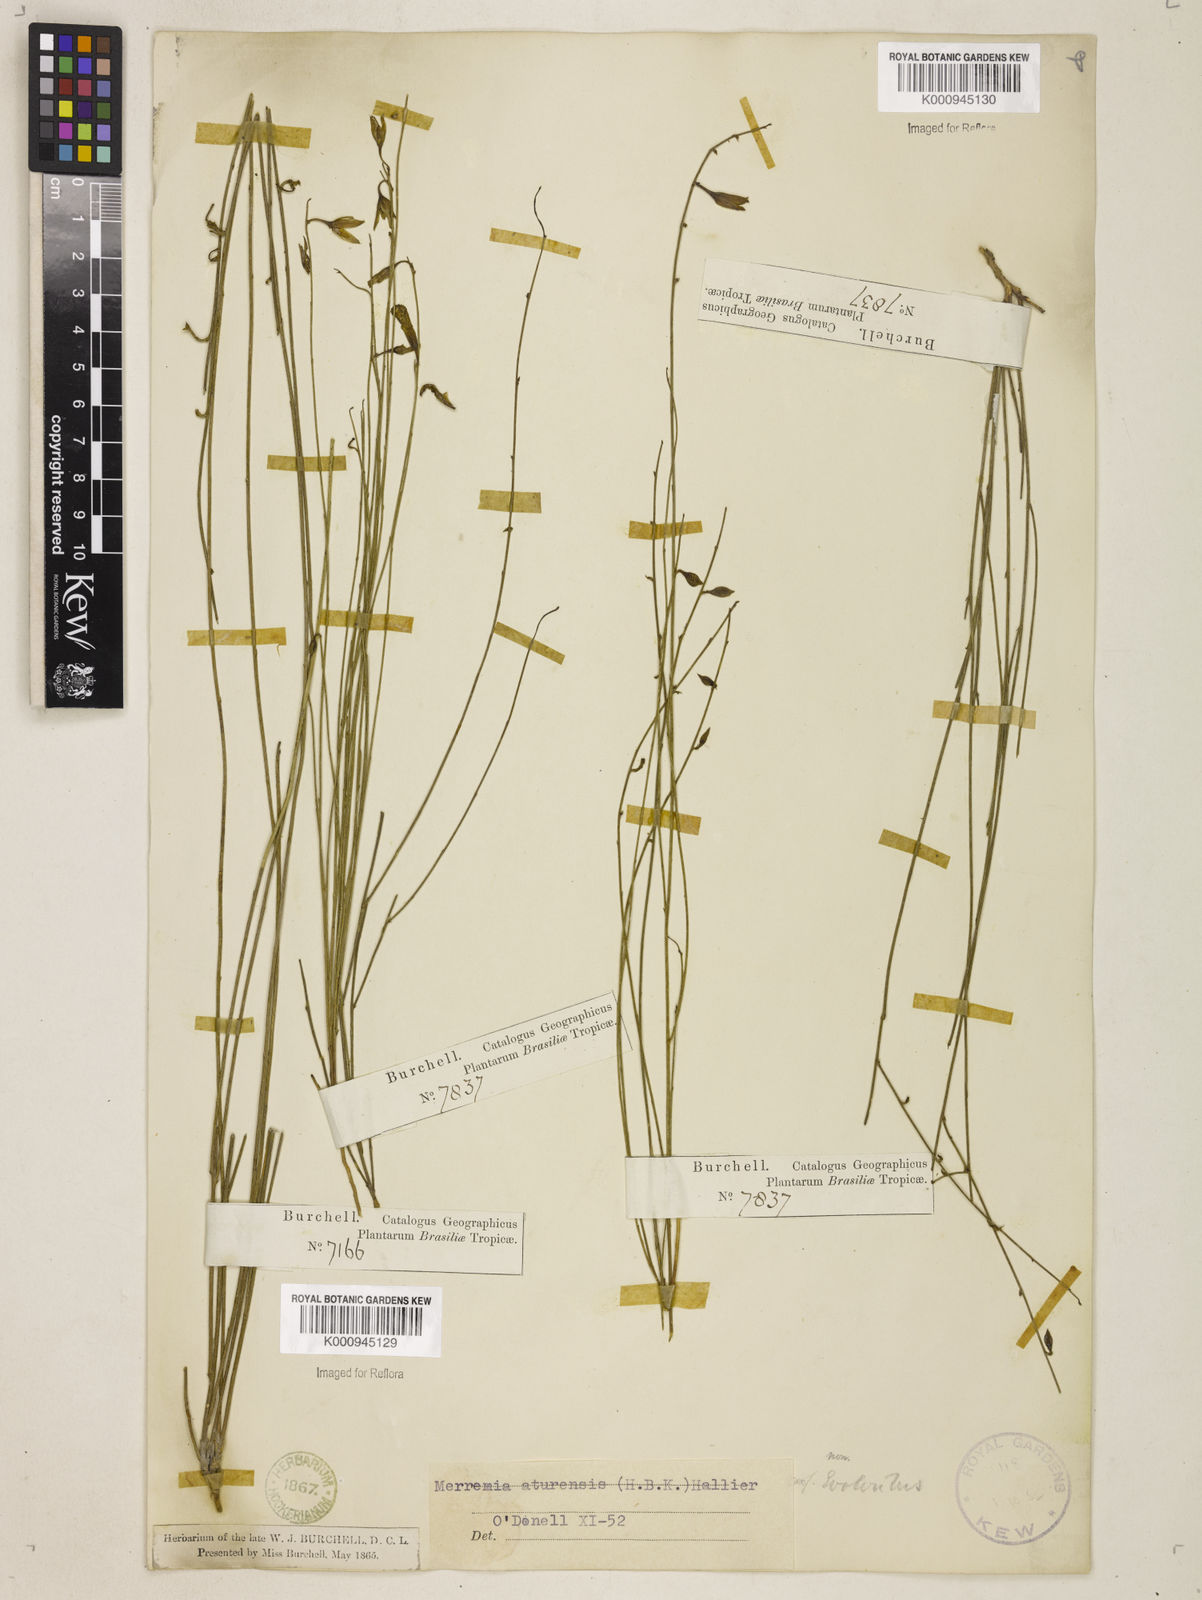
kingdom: Plantae
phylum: Tracheophyta
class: Magnoliopsida
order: Solanales
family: Convolvulaceae
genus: Distimake
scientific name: Distimake aturensis
